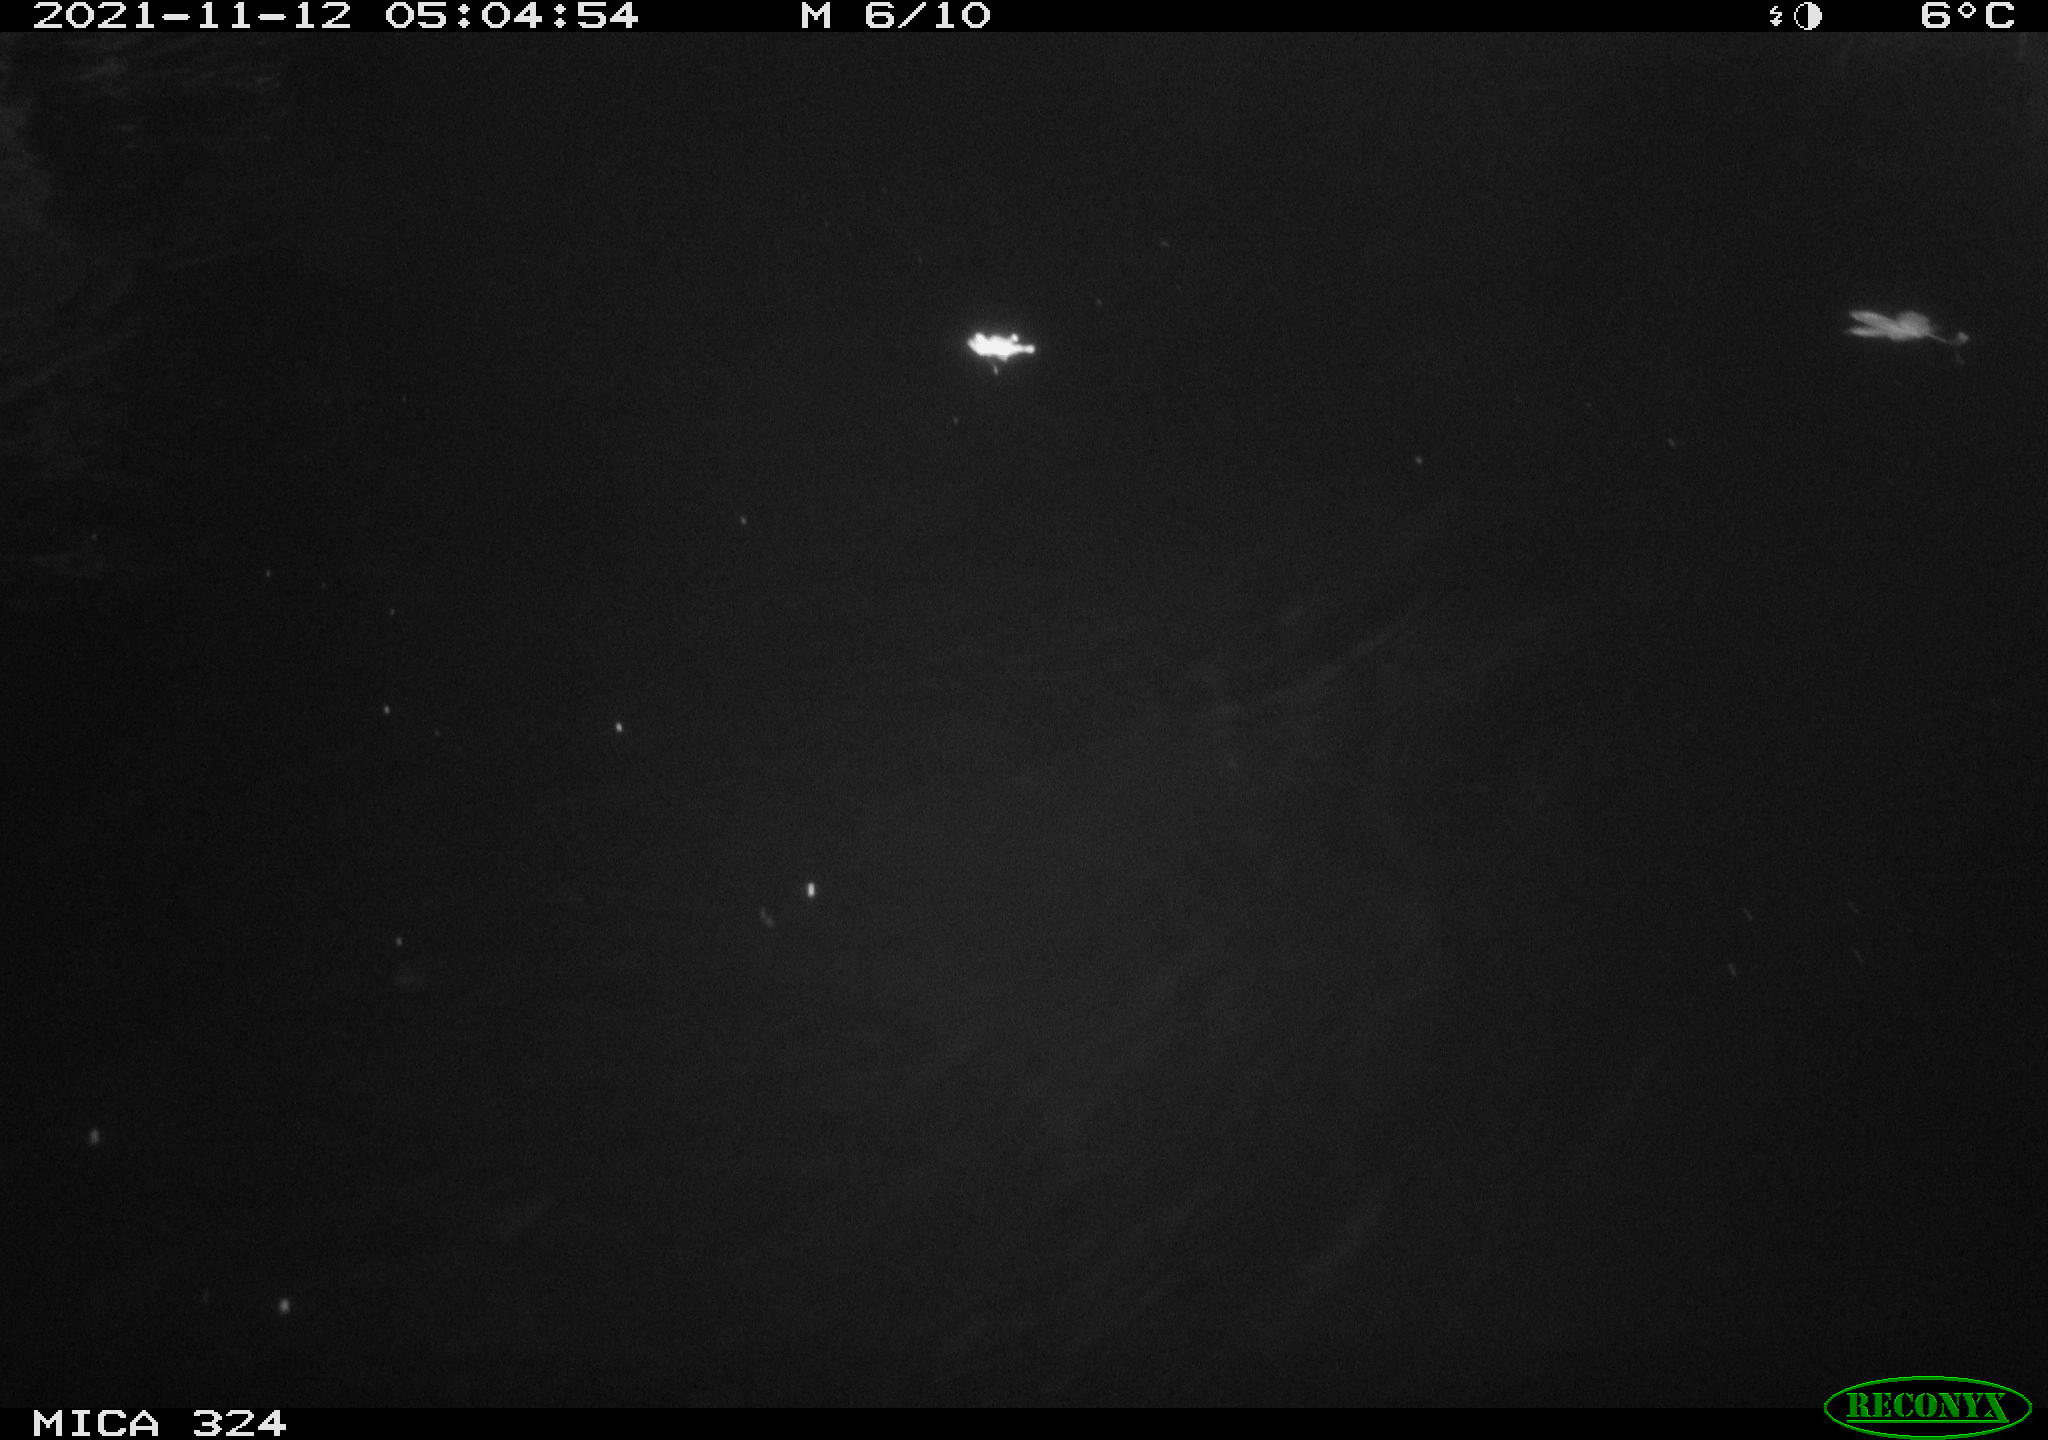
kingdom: Animalia
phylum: Chordata
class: Mammalia
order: Rodentia
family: Cricetidae
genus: Ondatra
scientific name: Ondatra zibethicus
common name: Muskrat
